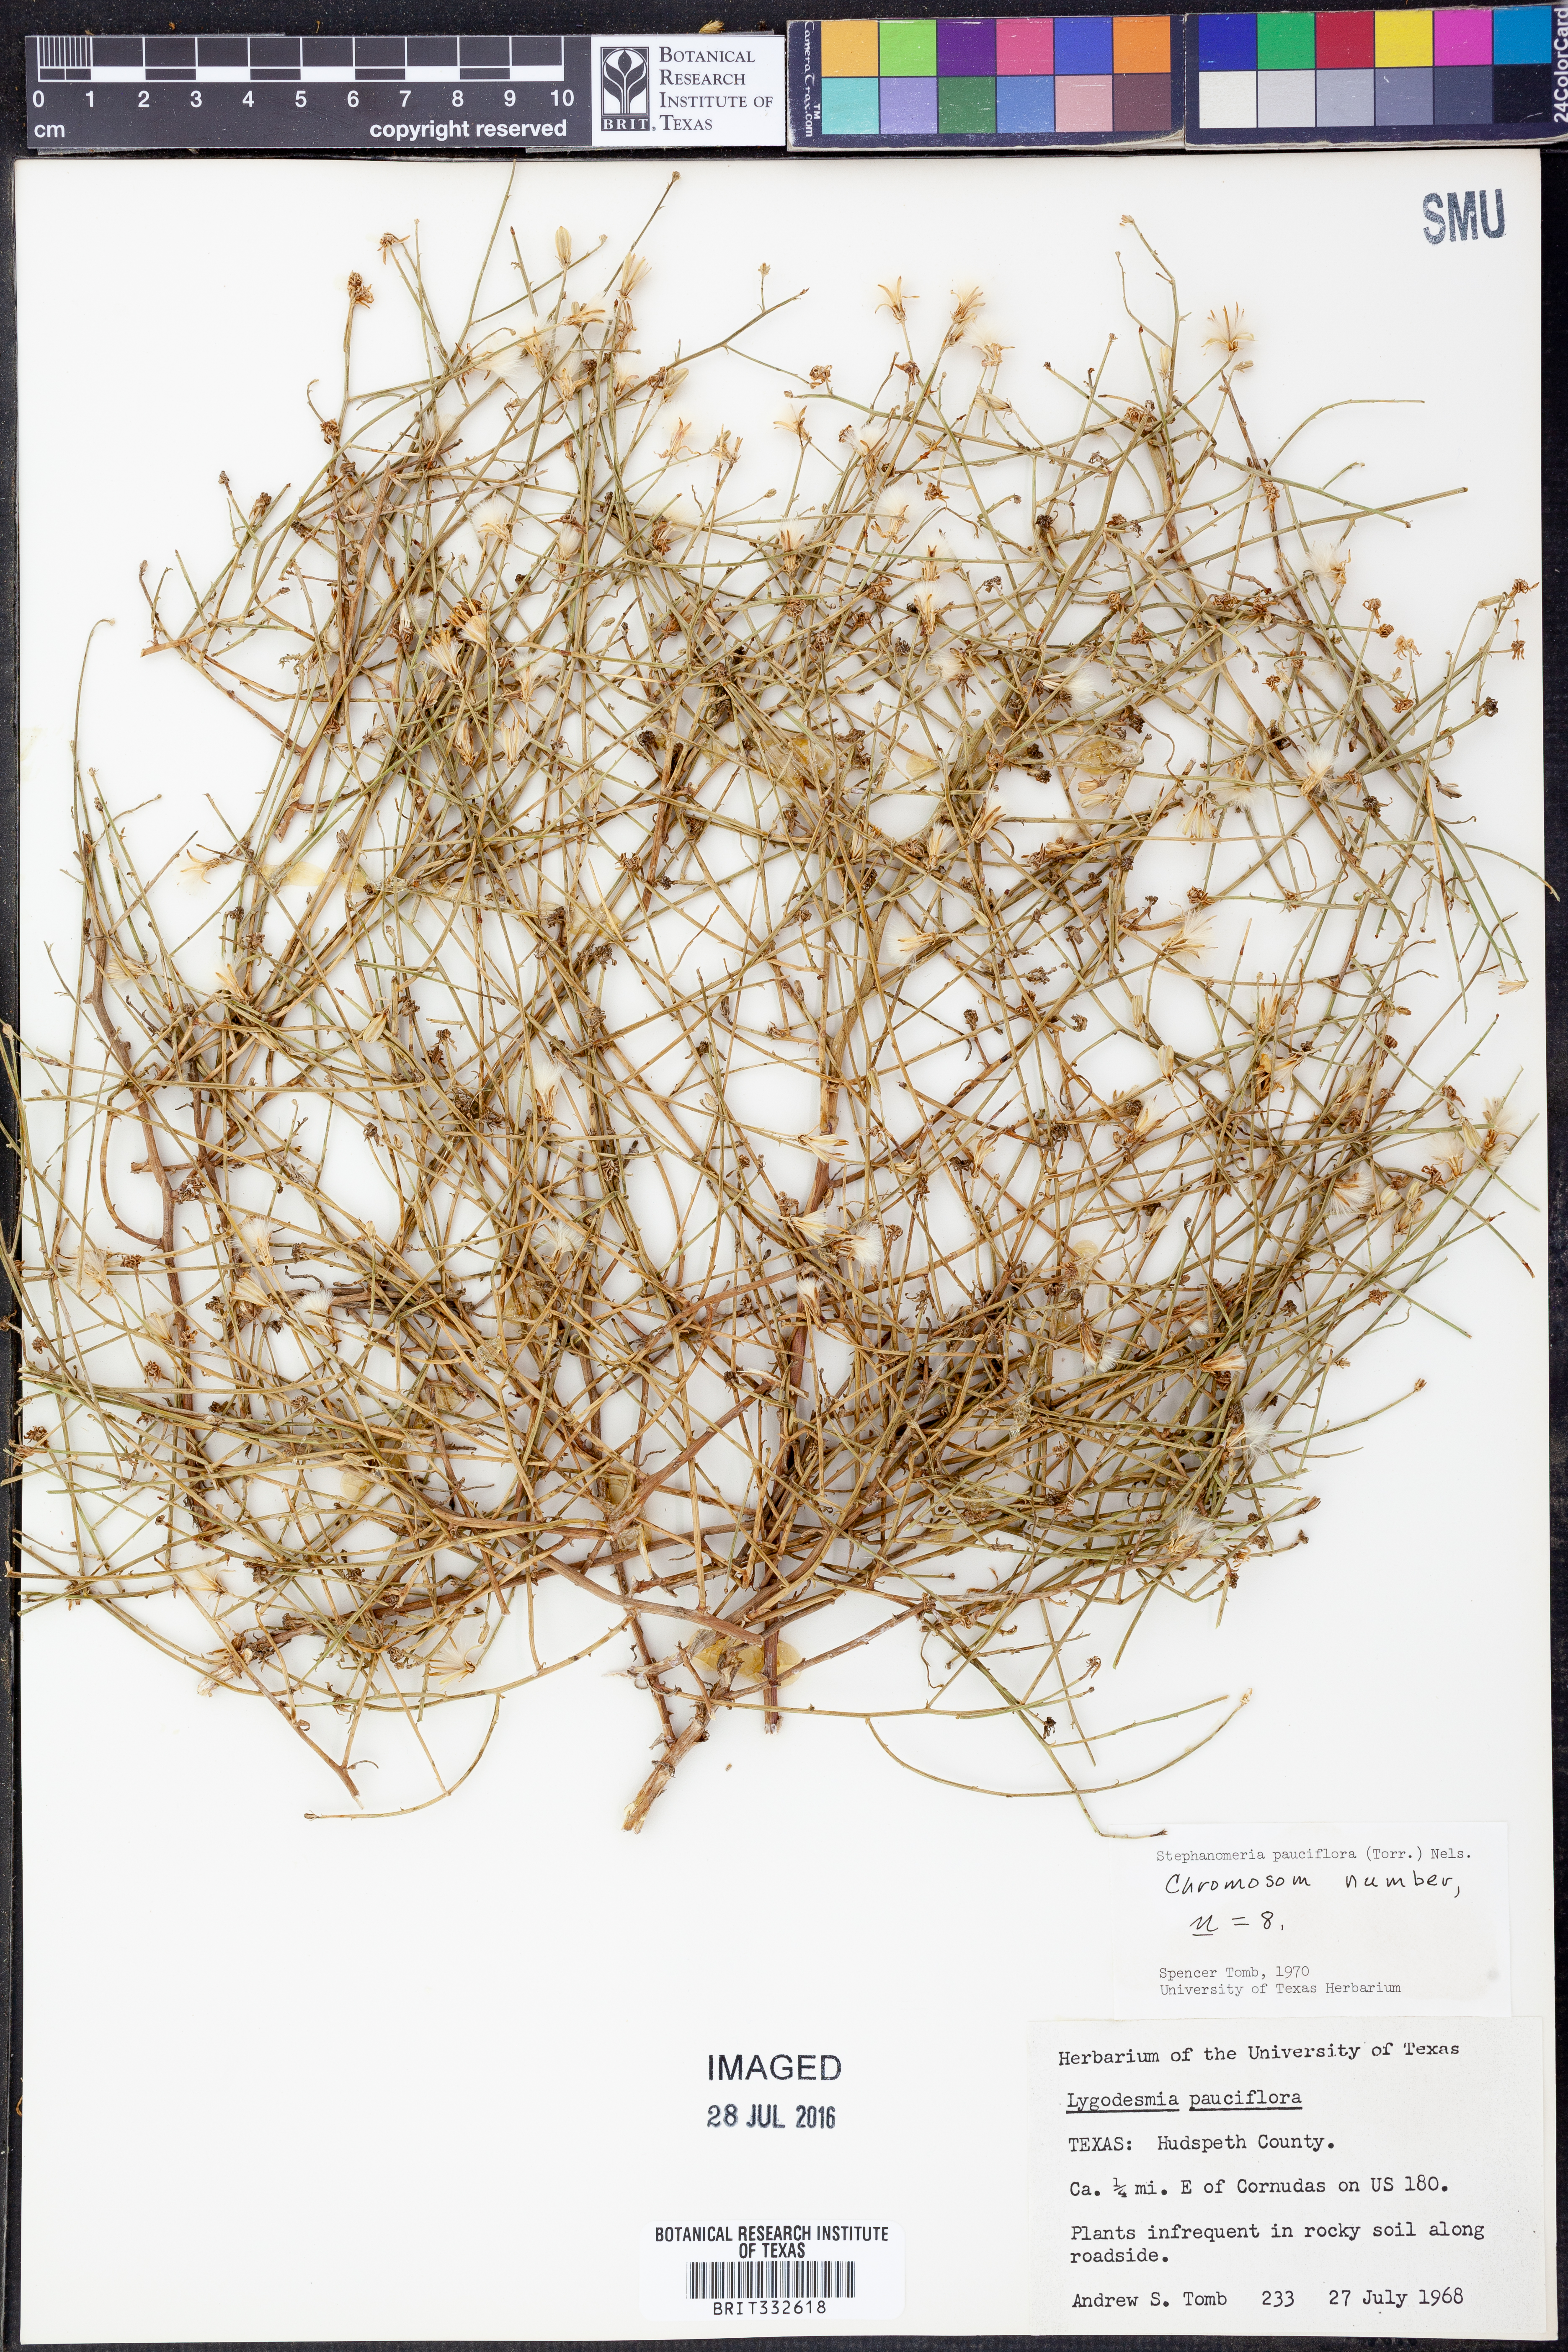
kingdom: Plantae
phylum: Tracheophyta
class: Magnoliopsida
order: Asterales
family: Asteraceae
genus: Stephanomeria
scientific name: Stephanomeria pauciflora
